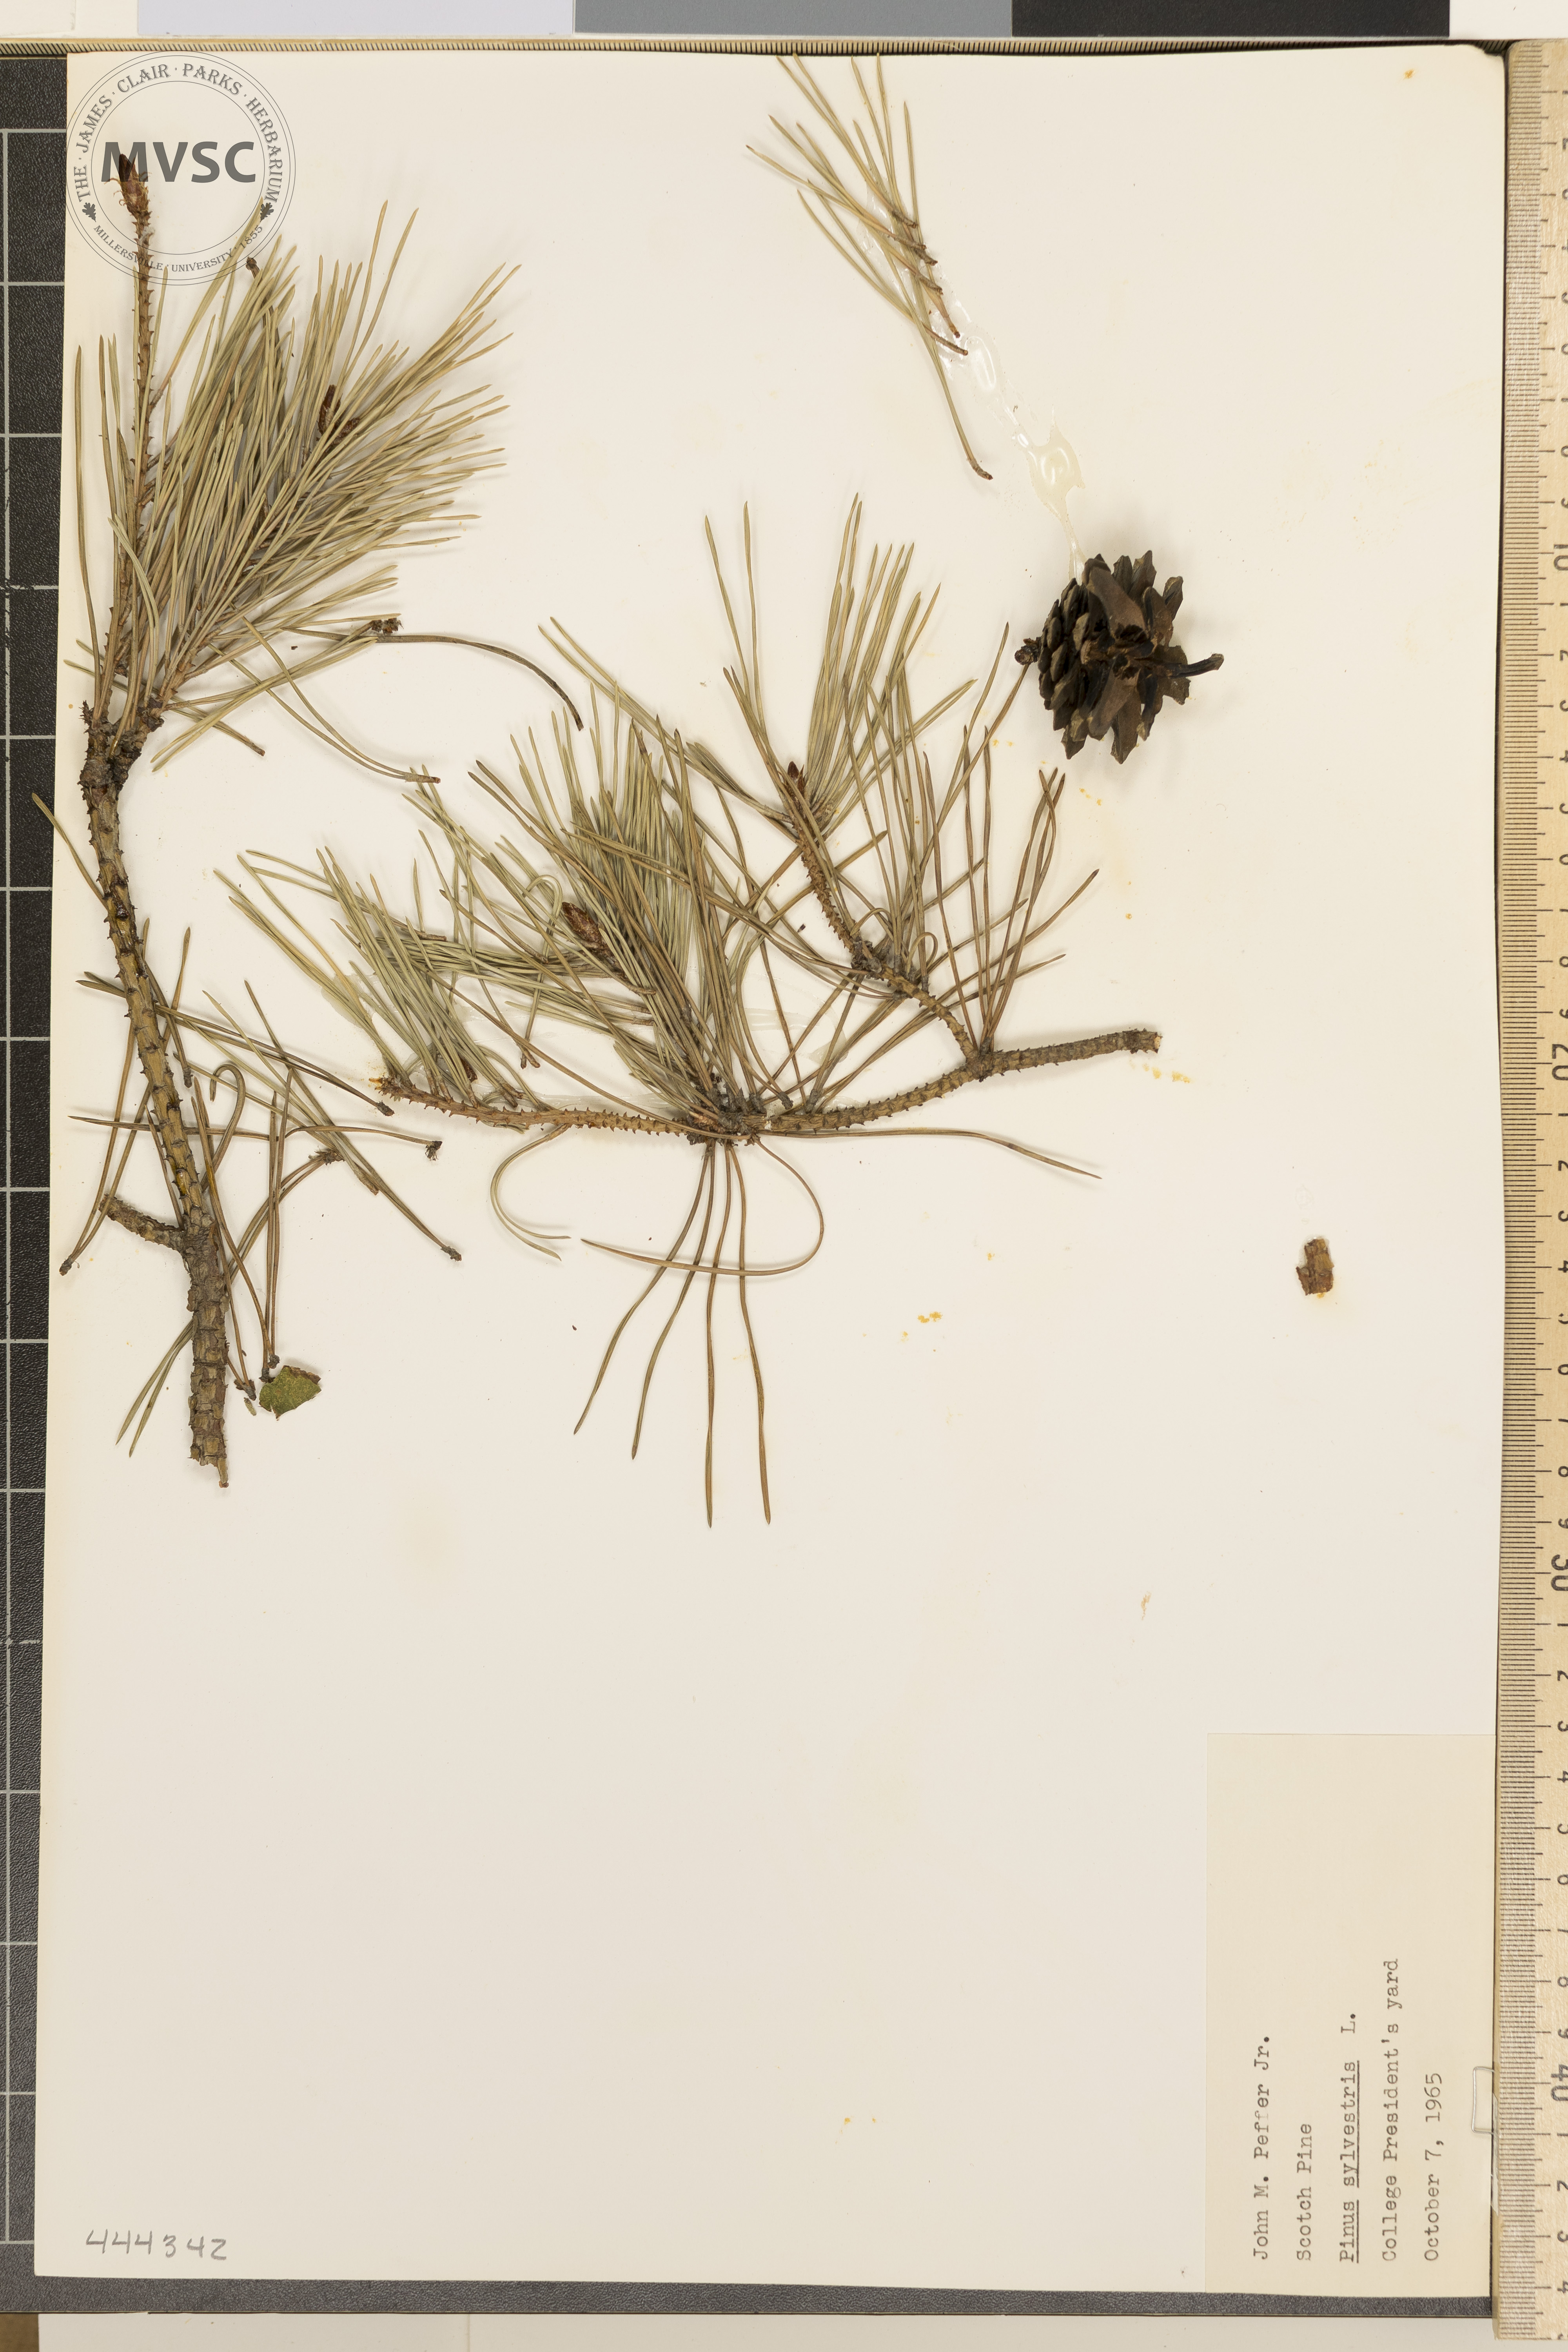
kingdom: Plantae
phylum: Tracheophyta
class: Pinopsida
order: Pinales
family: Pinaceae
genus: Pinus
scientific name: Pinus sylvestris
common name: Scotch Pine
